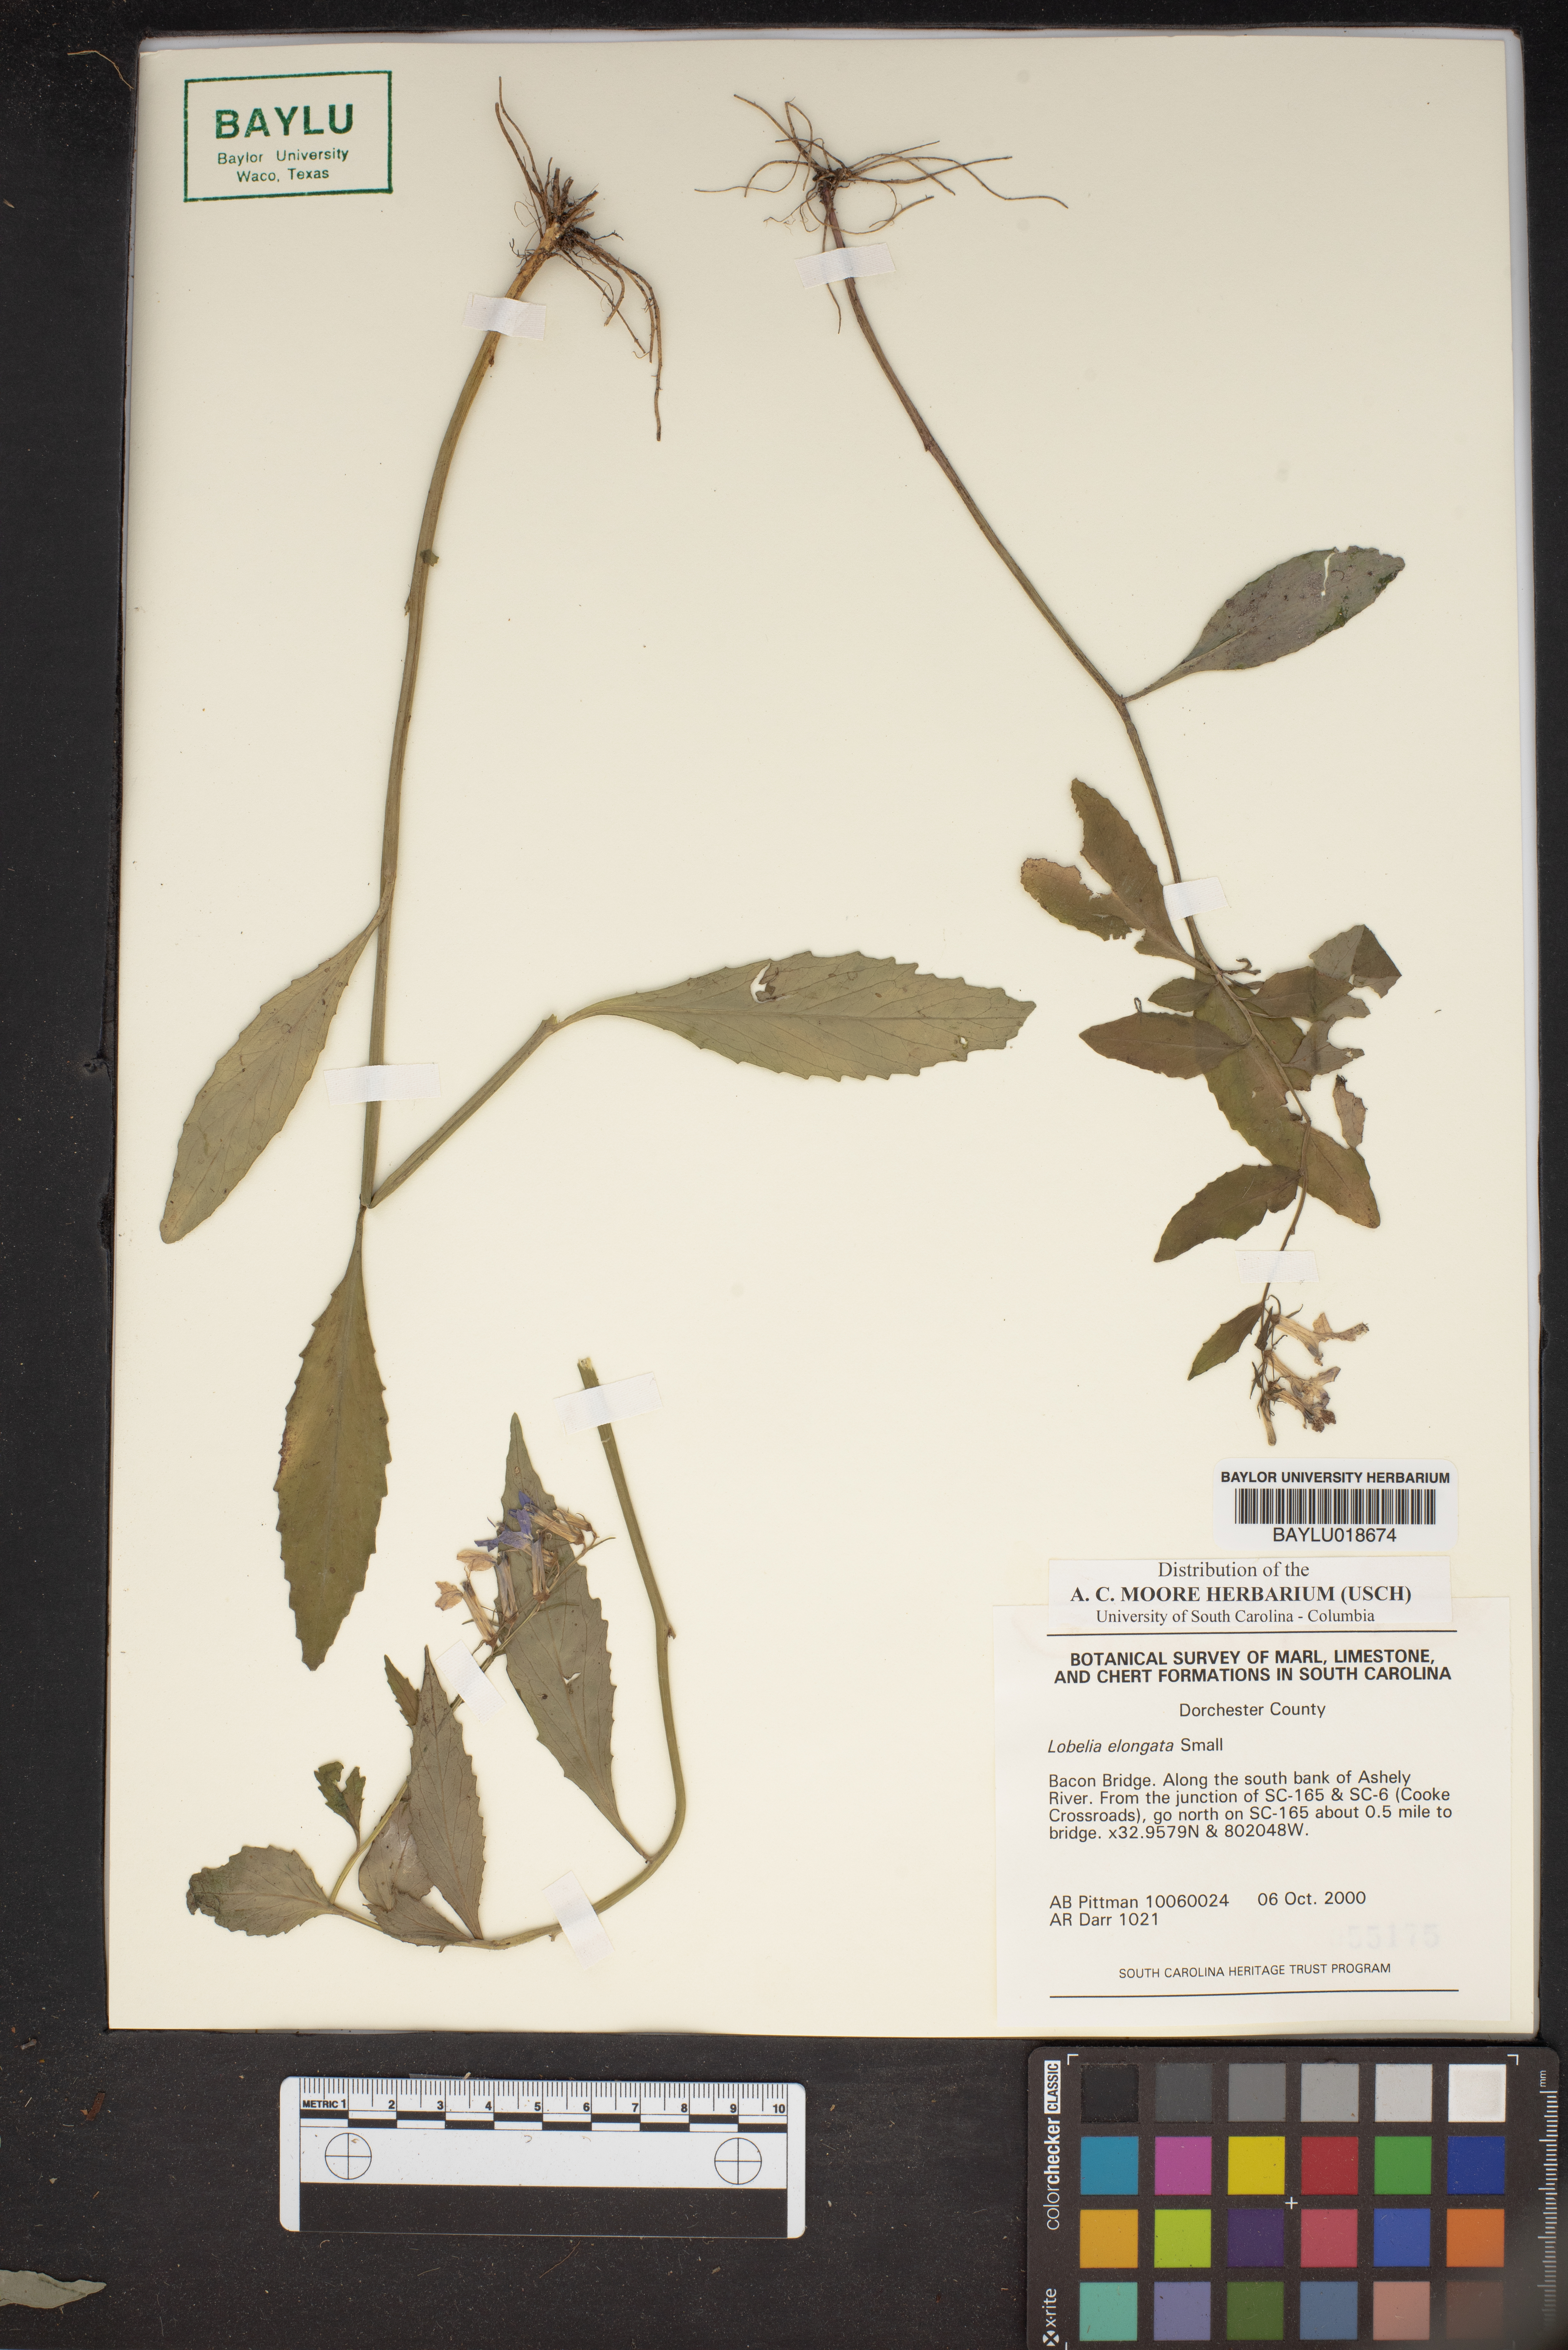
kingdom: Plantae
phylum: Tracheophyta
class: Magnoliopsida
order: Asterales
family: Campanulaceae
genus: Lobelia
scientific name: Lobelia elongata
